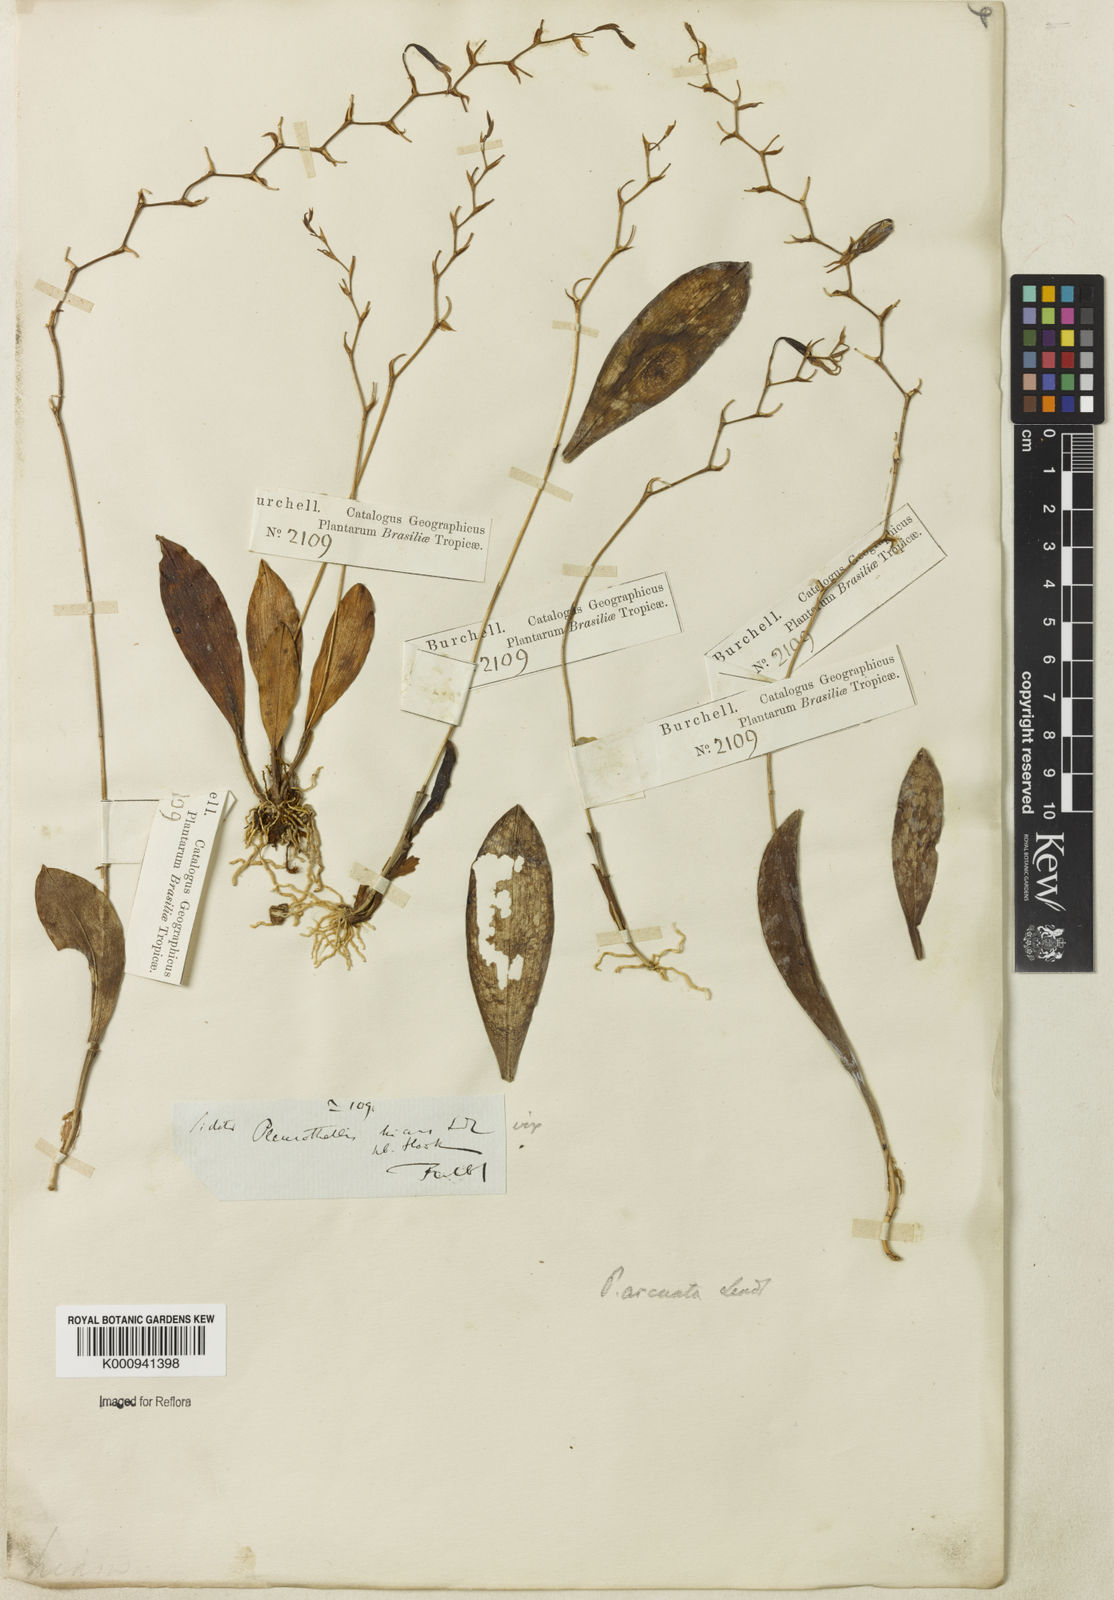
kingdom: Plantae
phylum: Tracheophyta
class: Liliopsida
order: Asparagales
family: Orchidaceae
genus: Stelis
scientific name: Stelis
